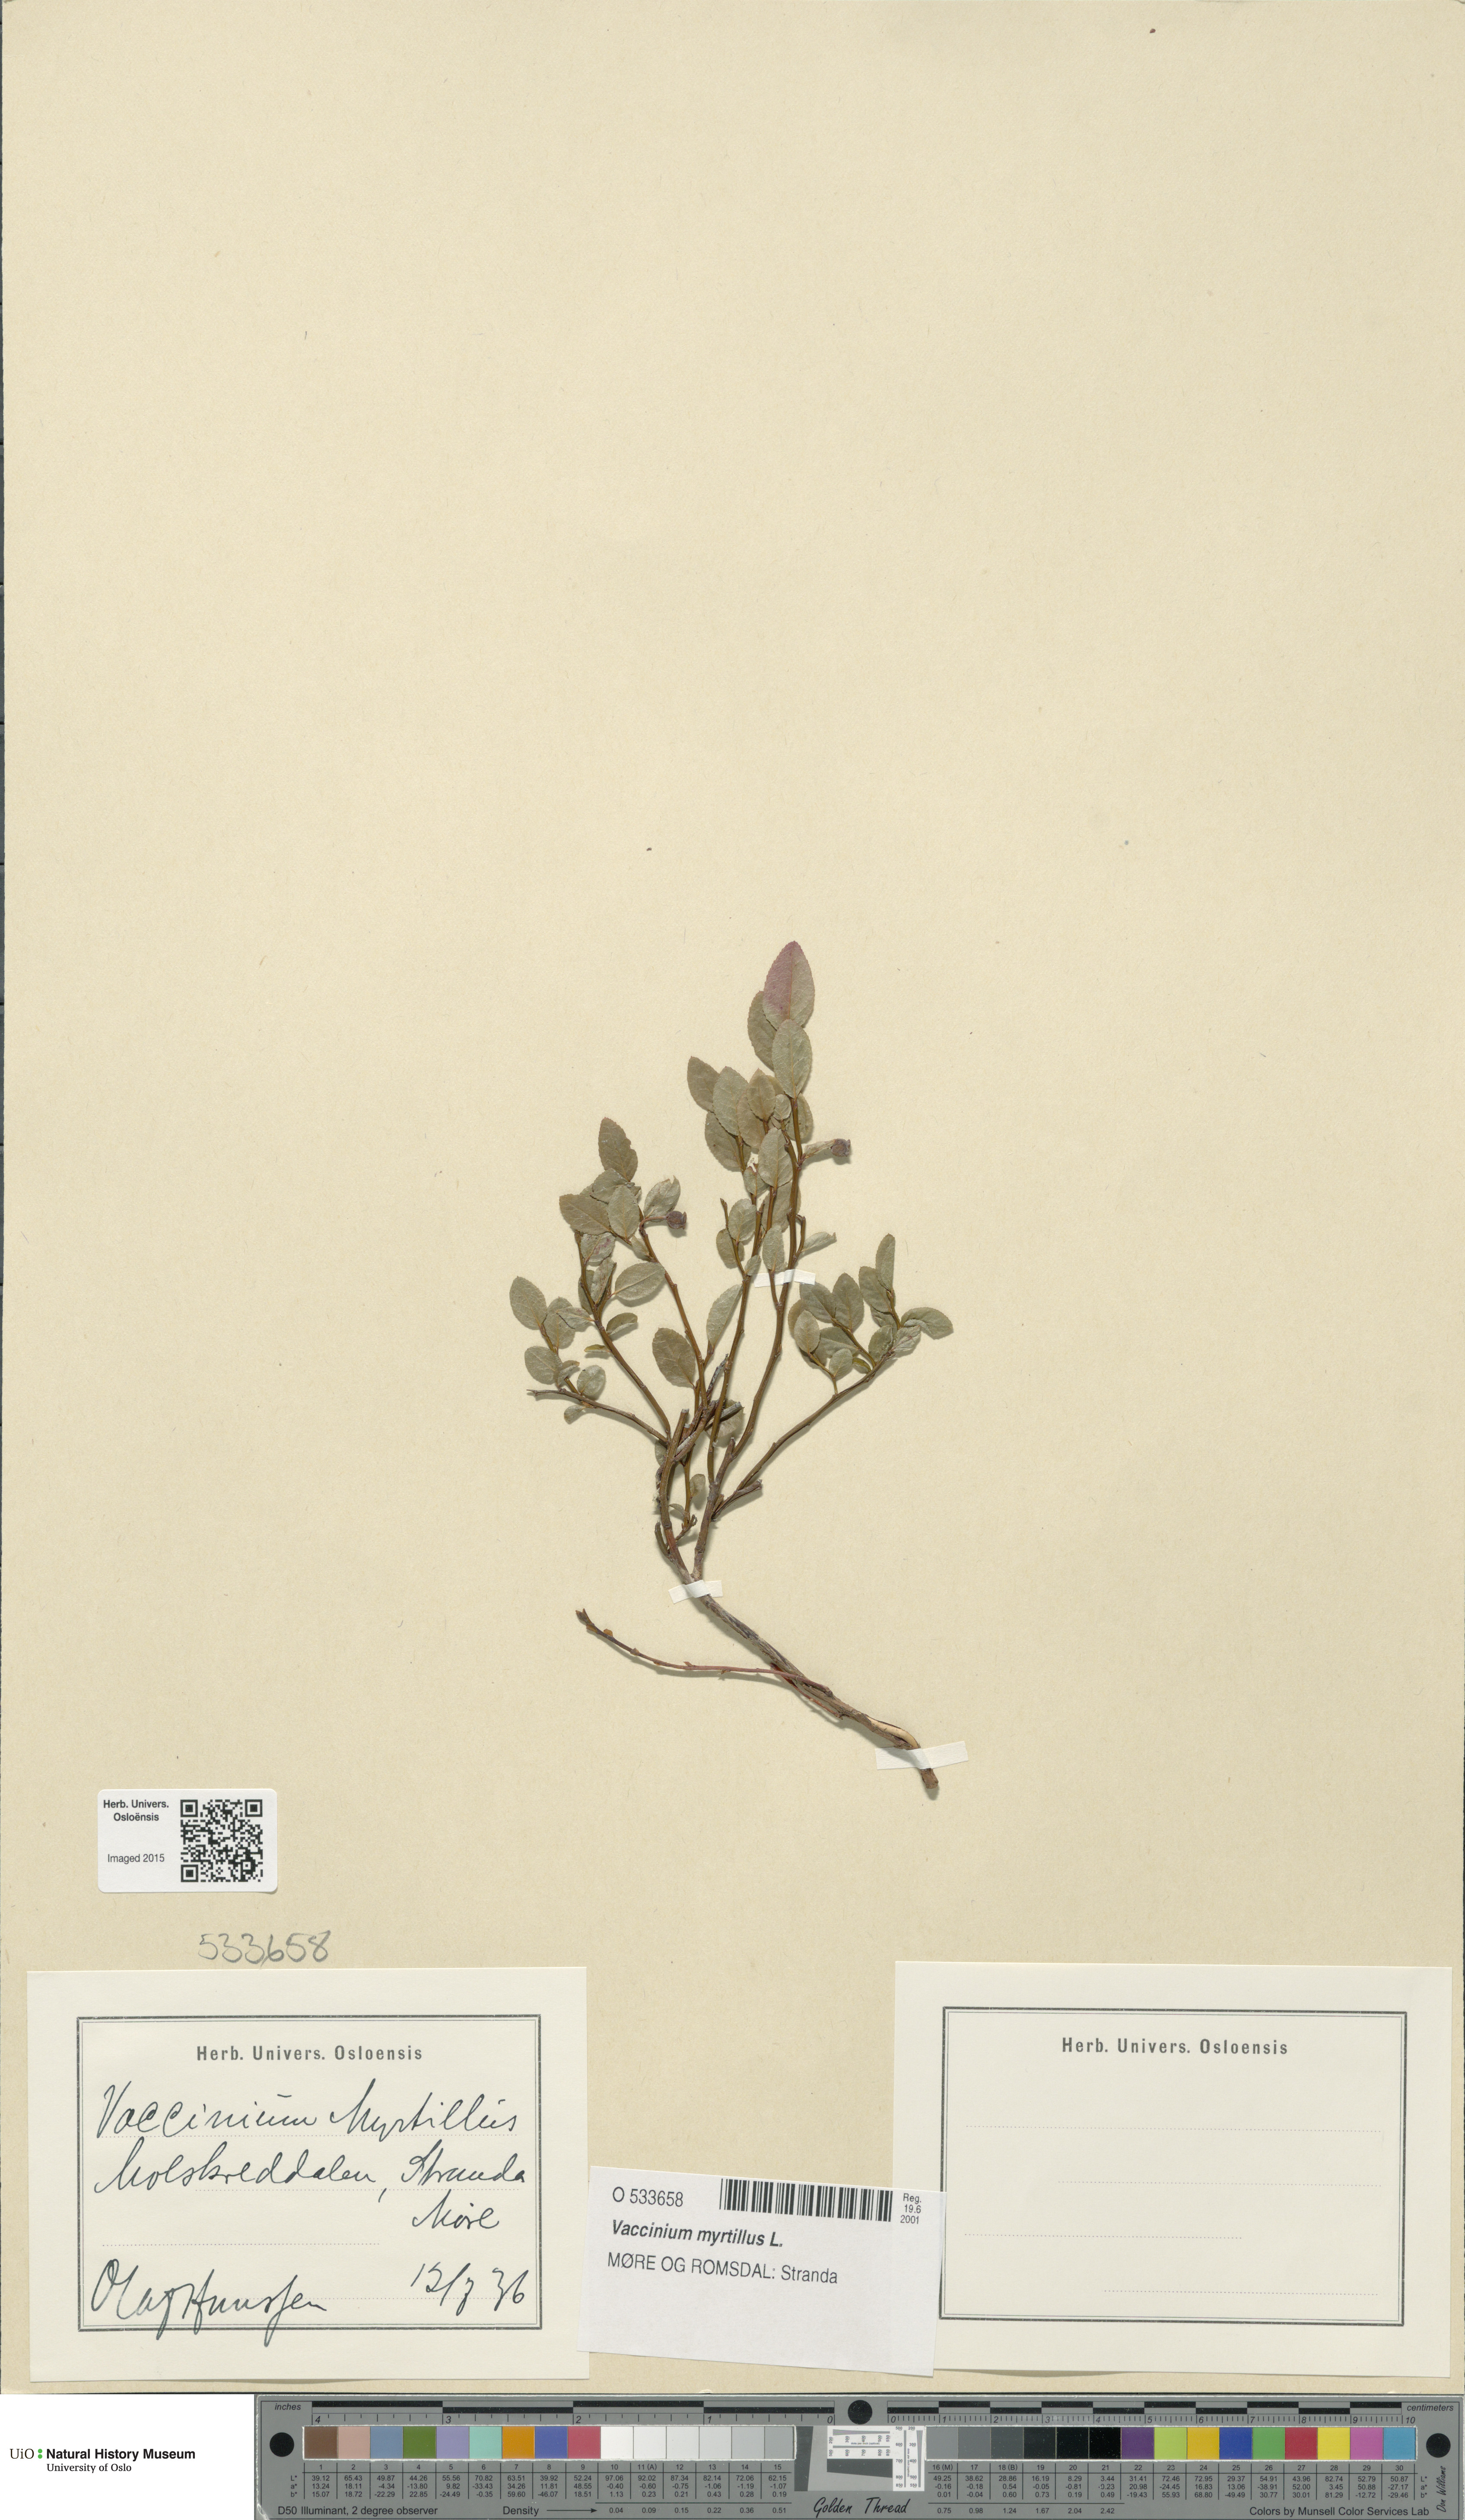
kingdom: Plantae
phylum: Tracheophyta
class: Magnoliopsida
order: Ericales
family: Ericaceae
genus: Vaccinium
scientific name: Vaccinium myrtillus
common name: Bilberry
